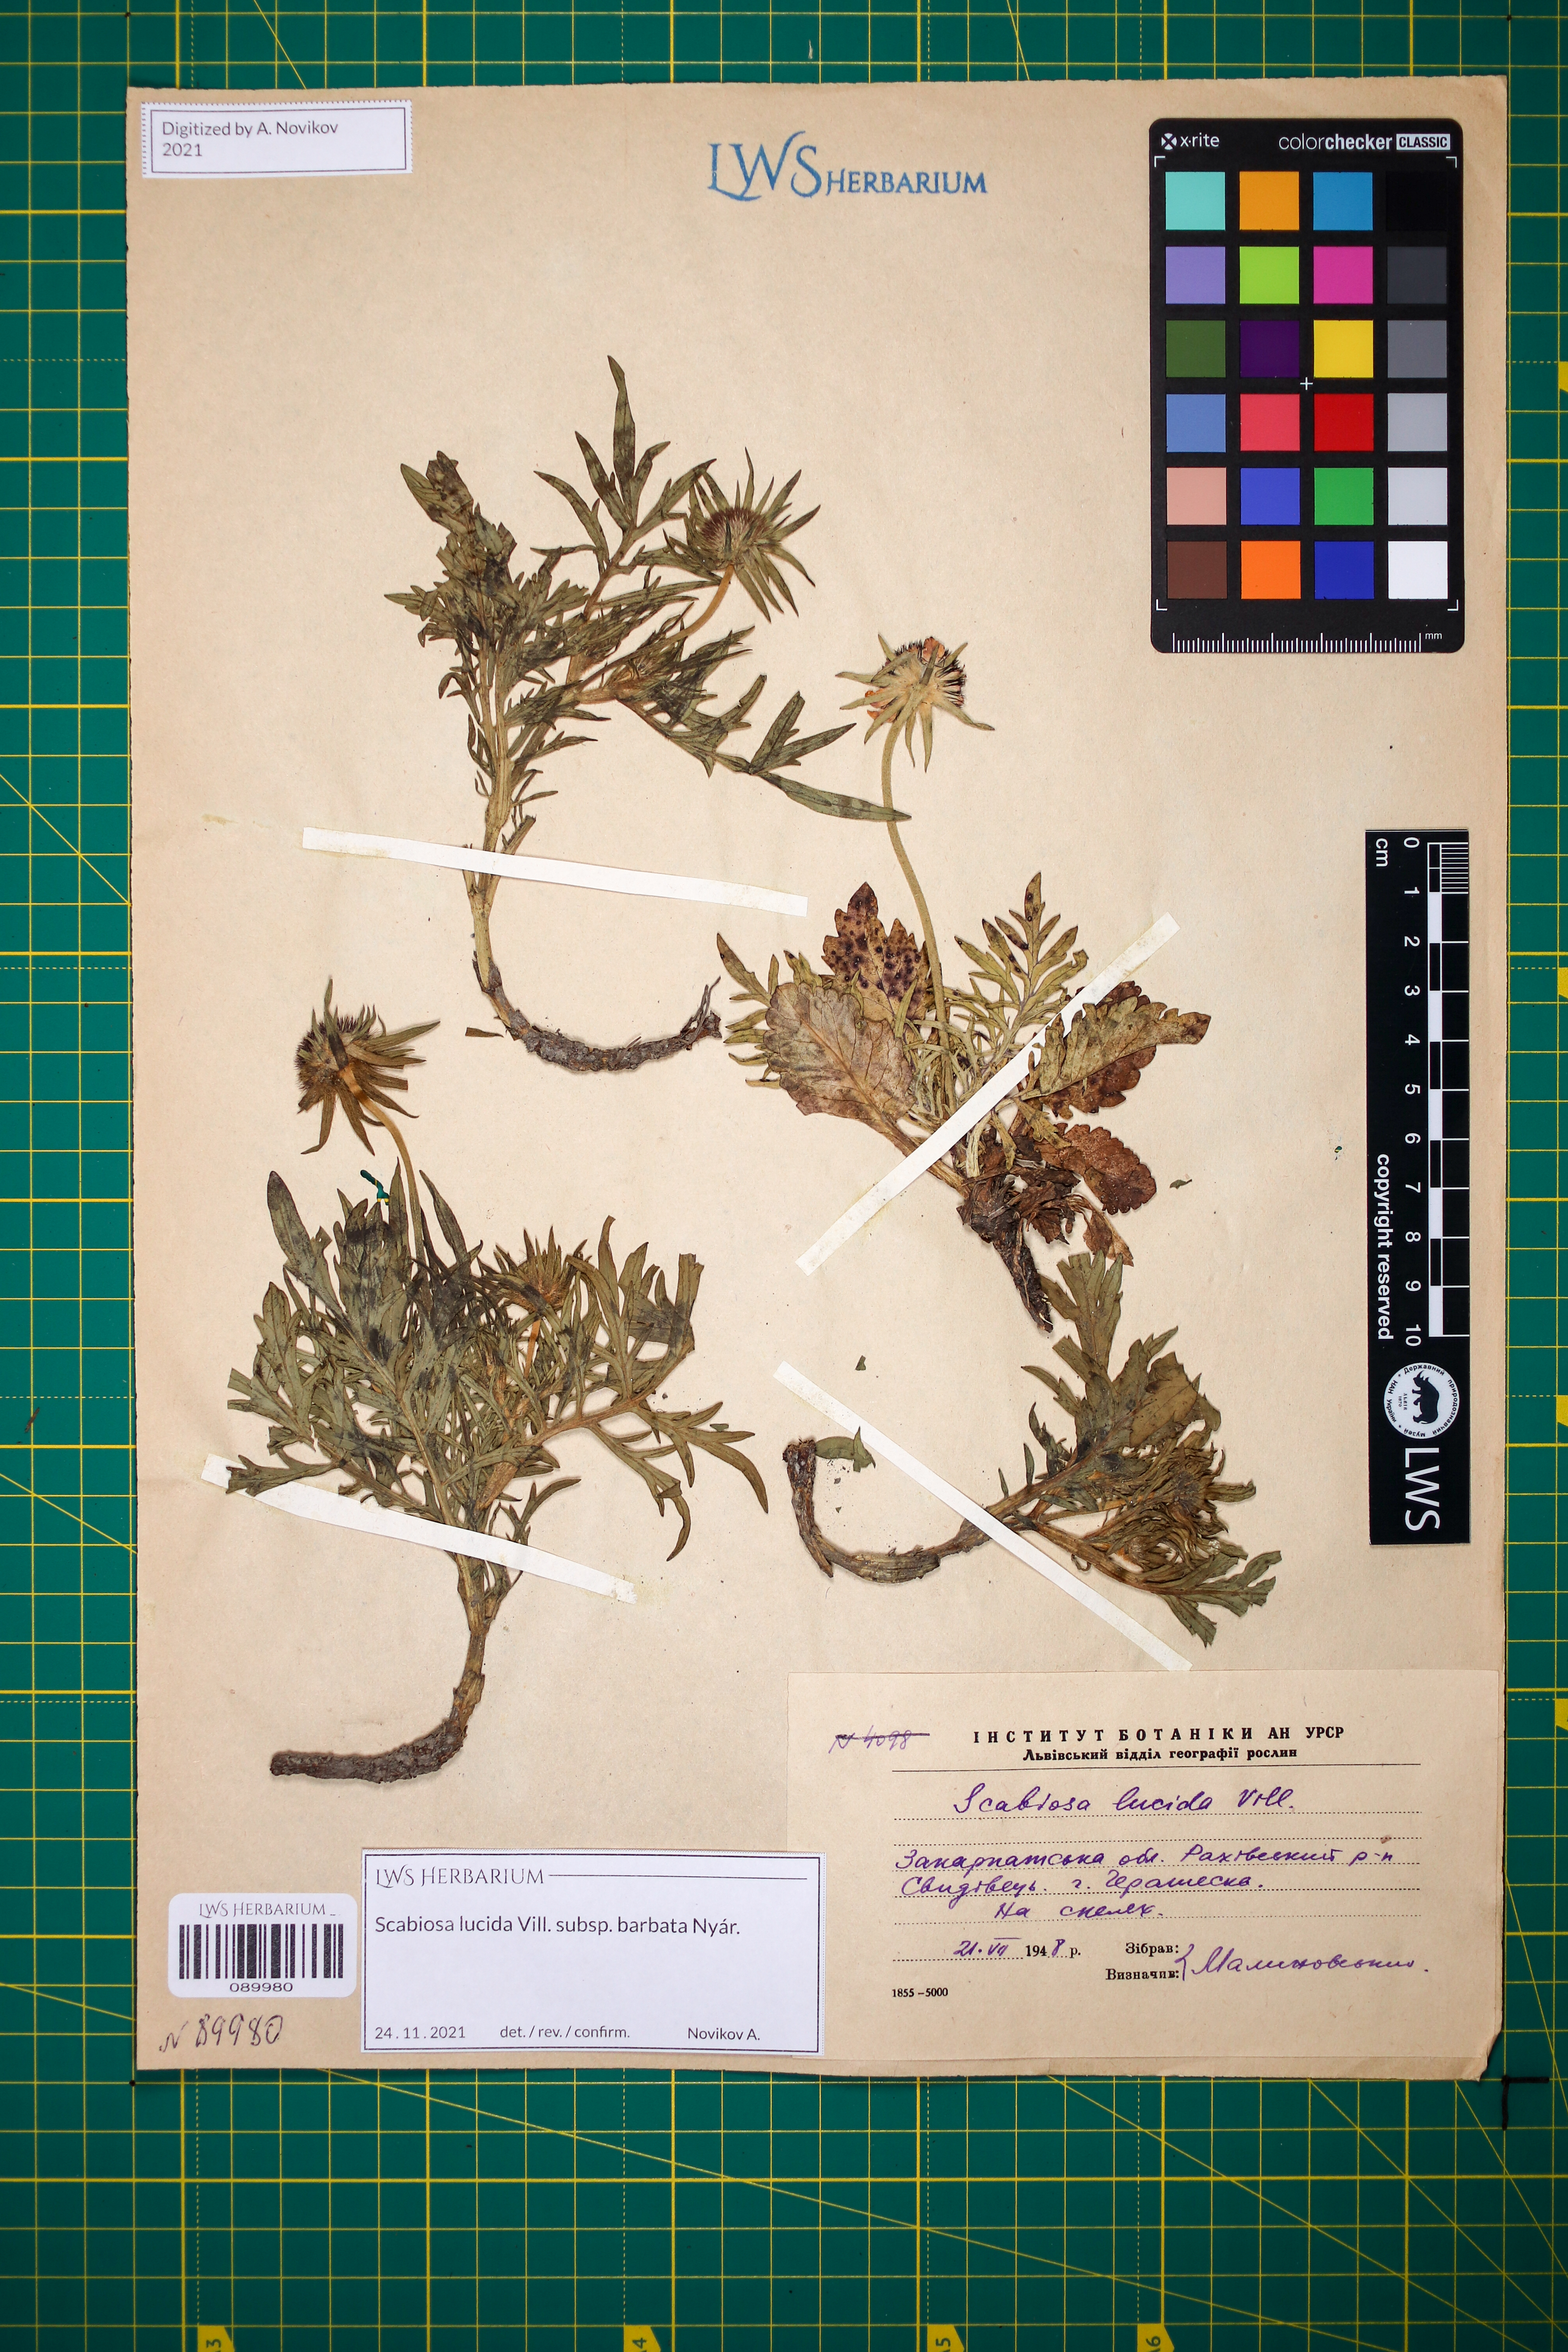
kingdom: Plantae
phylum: Tracheophyta
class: Magnoliopsida
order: Dipsacales
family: Caprifoliaceae
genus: Scabiosa
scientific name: Scabiosa lucida
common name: Shining scabious
